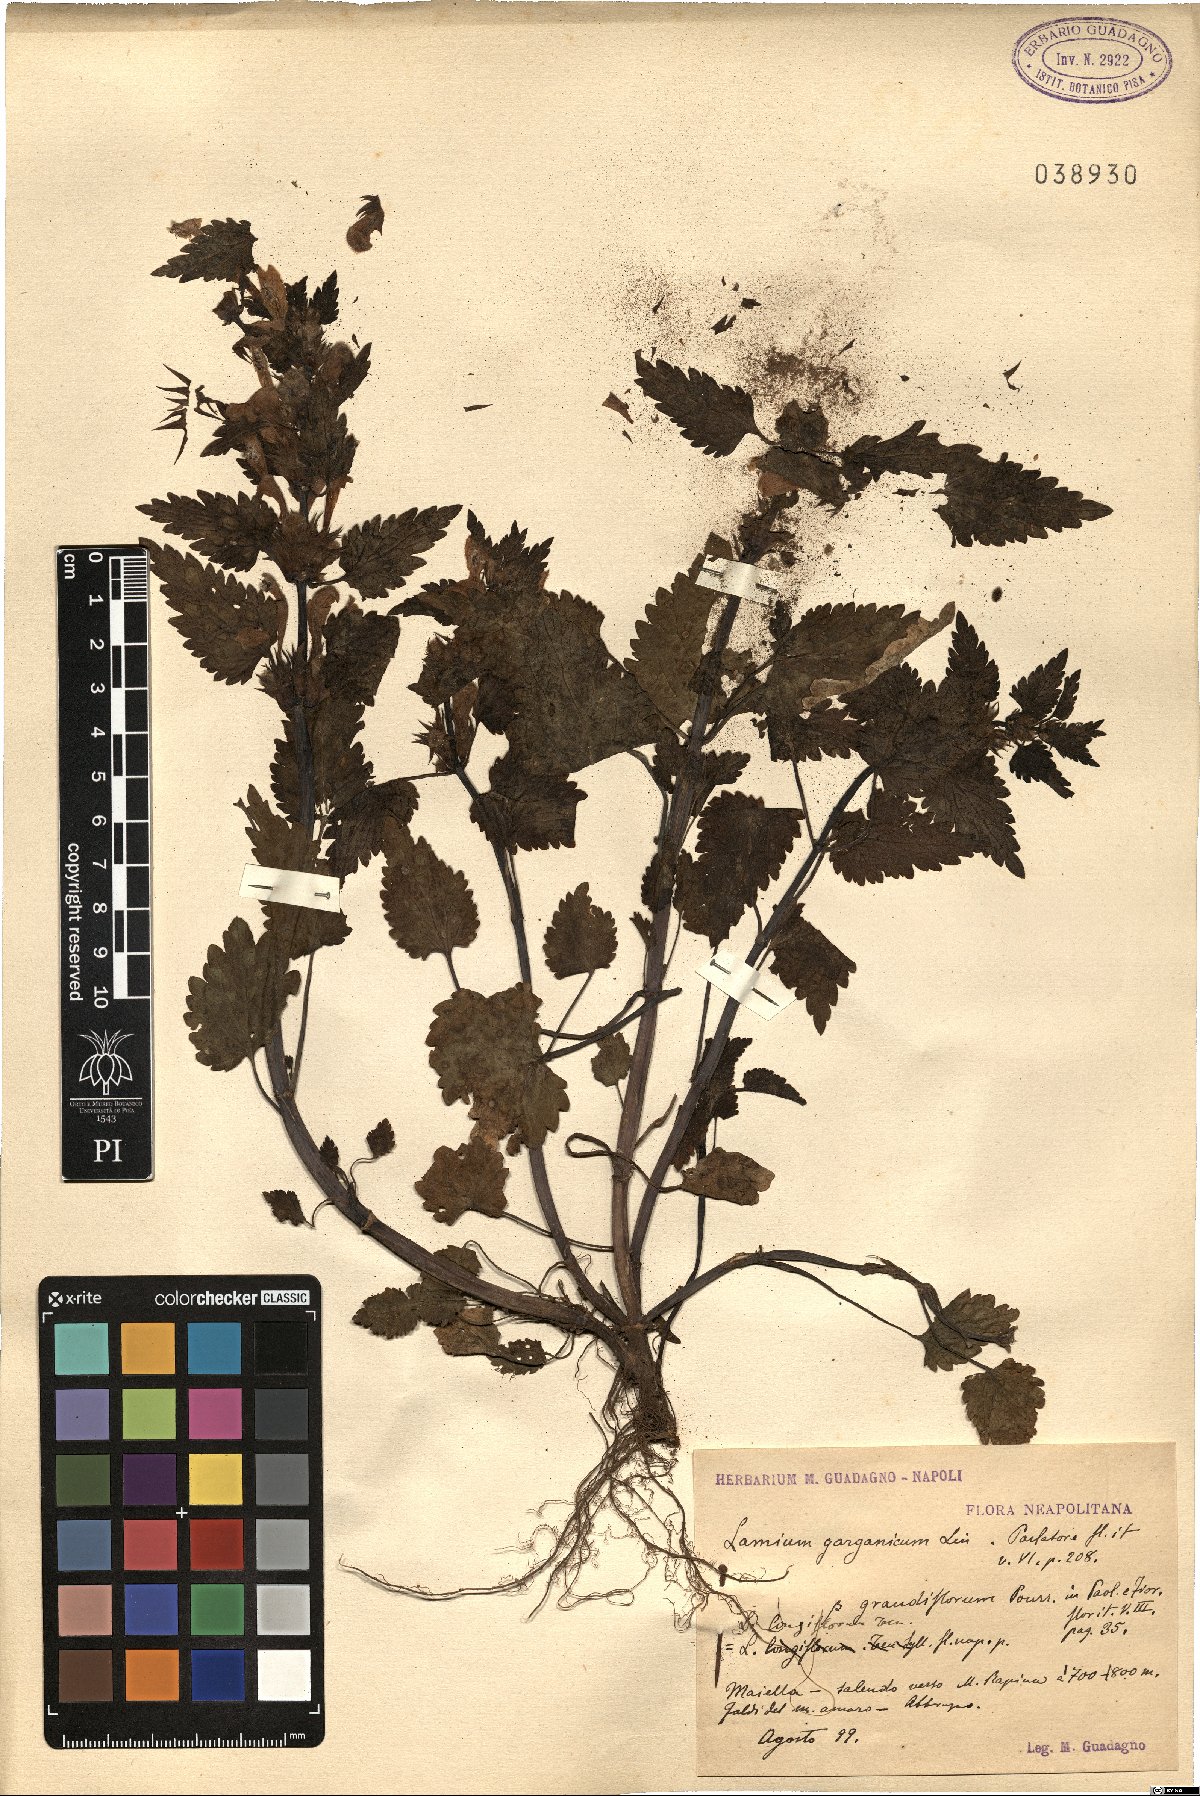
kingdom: Plantae
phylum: Tracheophyta
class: Magnoliopsida
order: Lamiales
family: Lamiaceae
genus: Lamium
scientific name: Lamium garganicum
